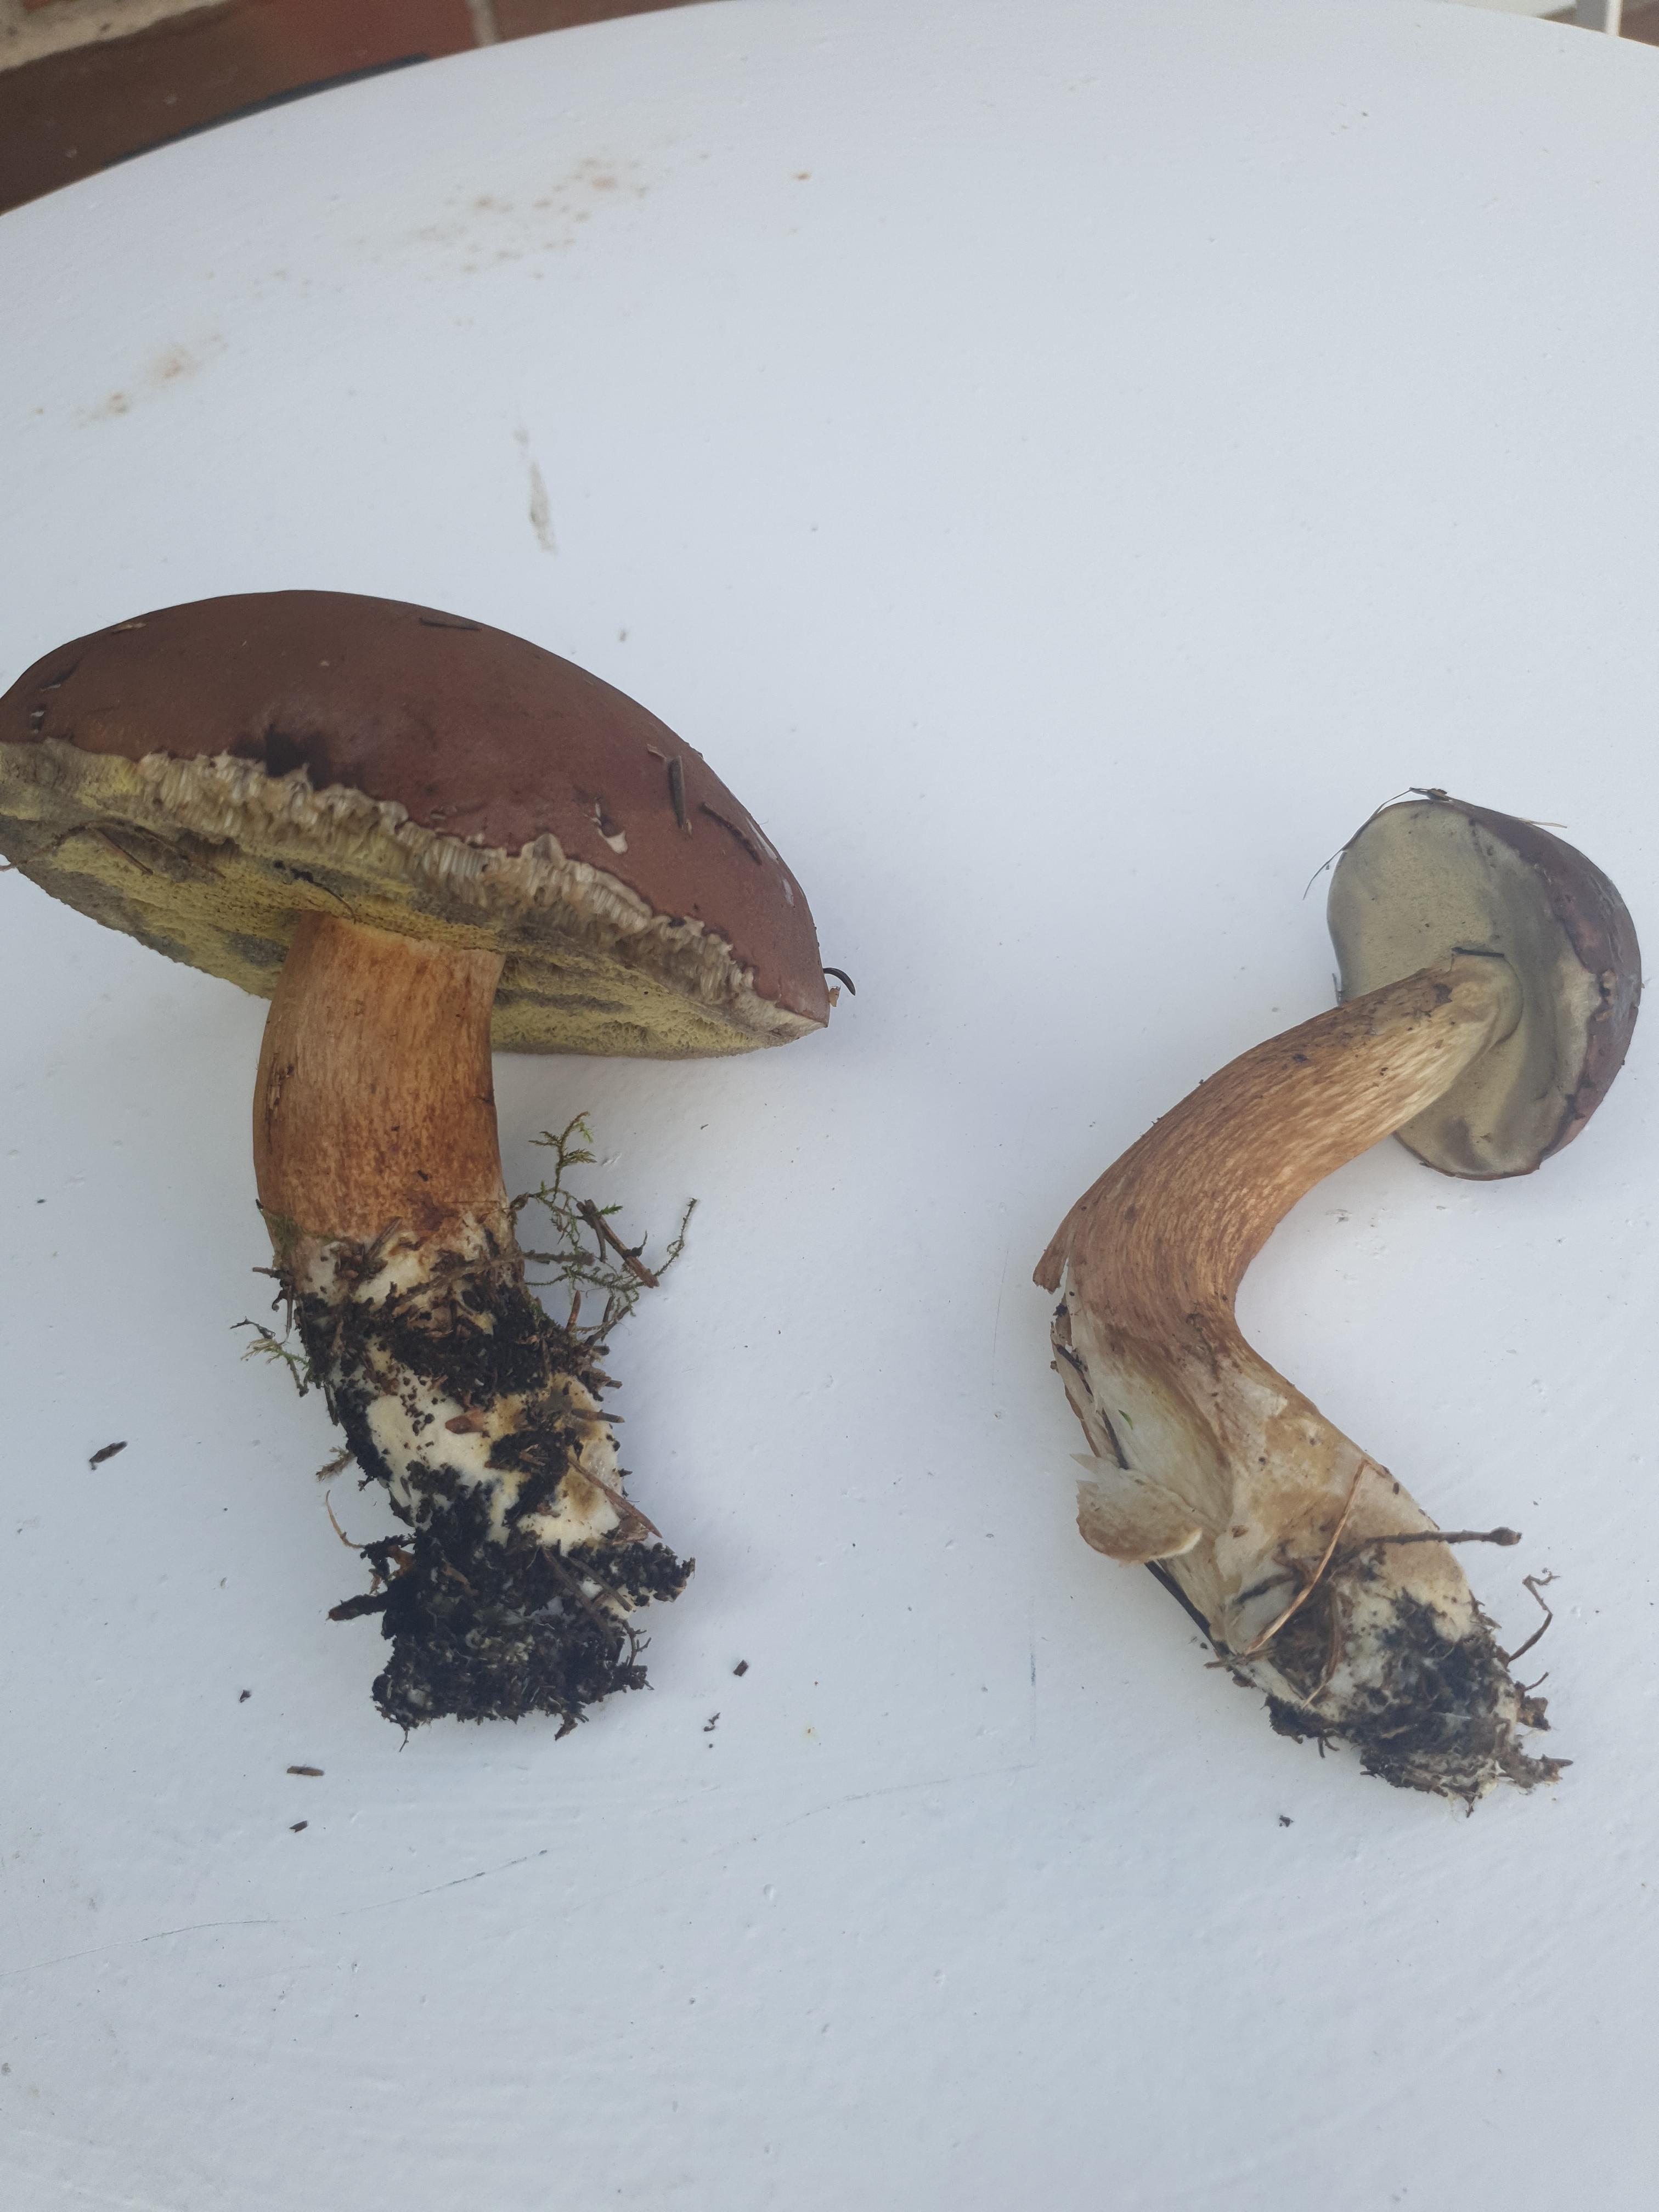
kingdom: Fungi
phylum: Basidiomycota
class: Agaricomycetes
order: Boletales
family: Boletaceae
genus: Imleria
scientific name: Imleria badia
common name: brunstokket rørhat
